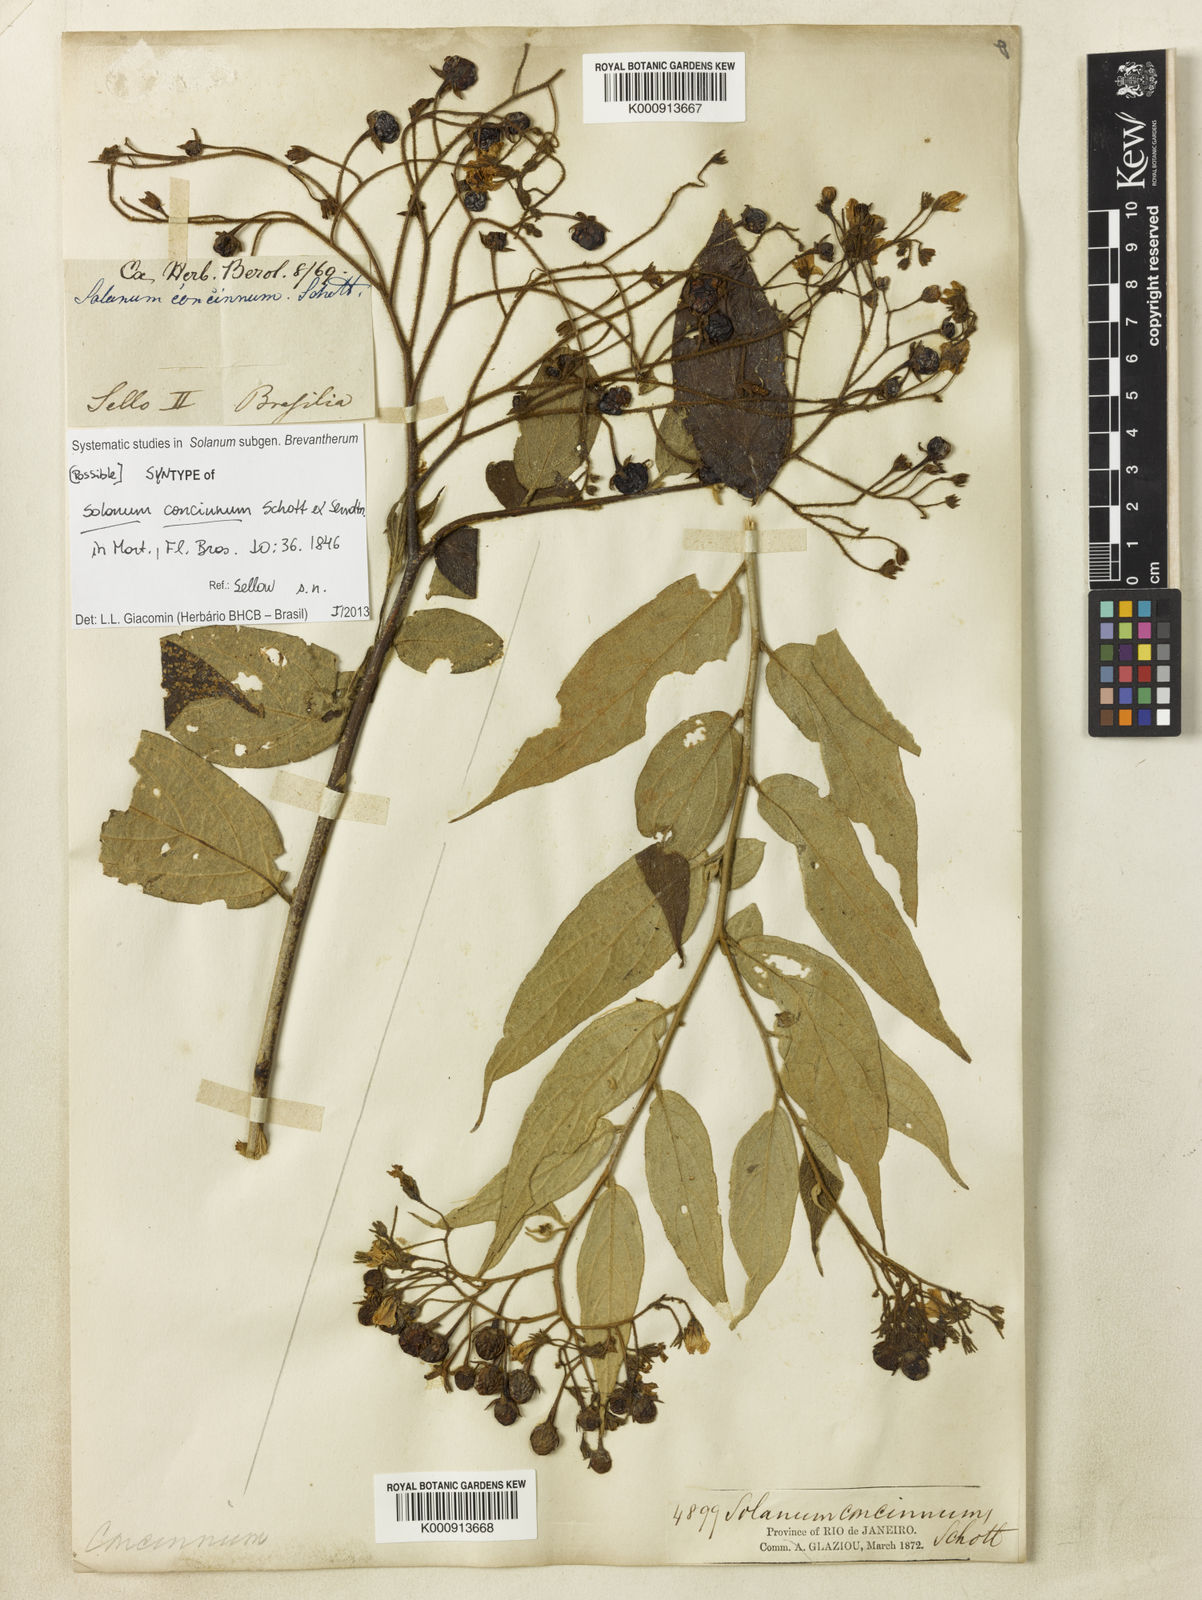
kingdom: Plantae
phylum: Tracheophyta
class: Magnoliopsida
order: Solanales
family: Solanaceae
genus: Solanum
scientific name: Solanum concinnum
